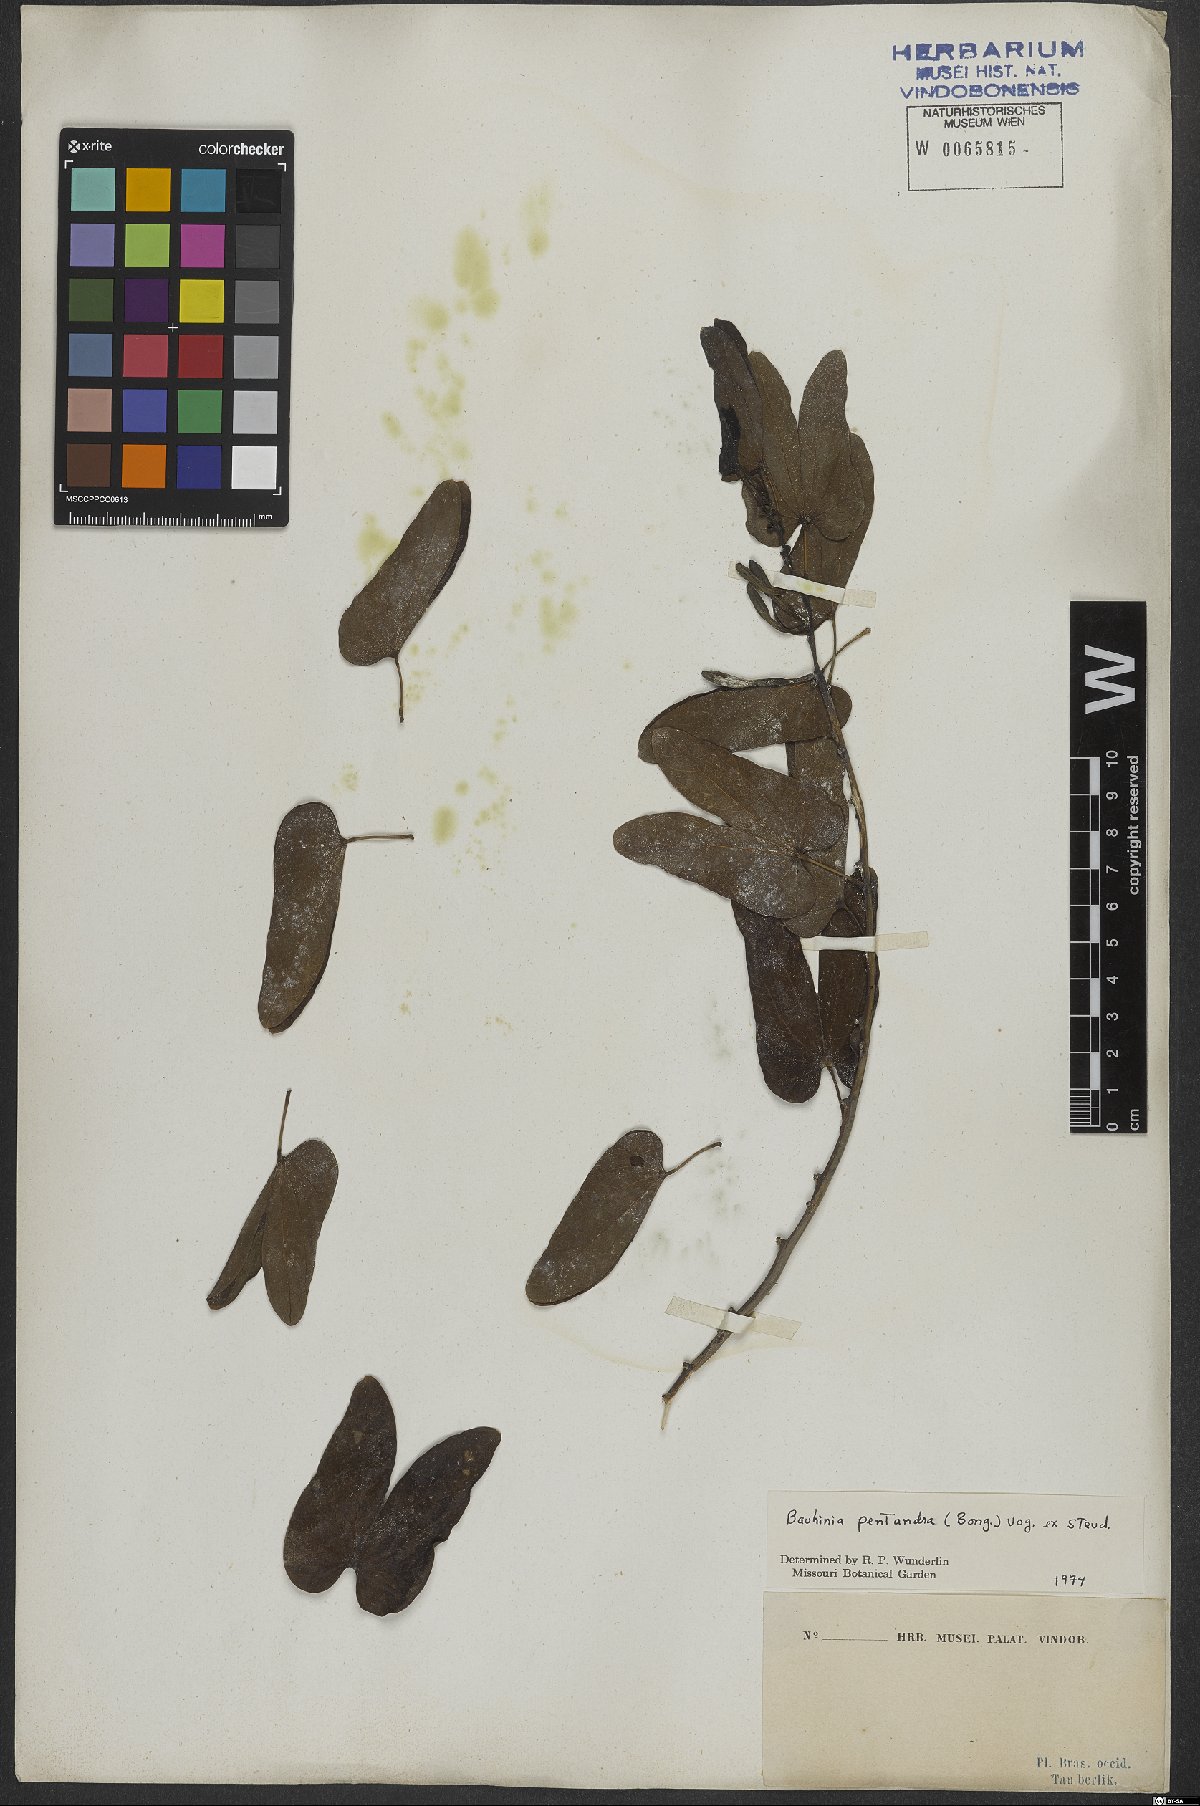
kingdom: Plantae
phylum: Tracheophyta
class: Magnoliopsida
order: Fabales
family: Fabaceae
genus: Bauhinia
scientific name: Bauhinia pentandra
